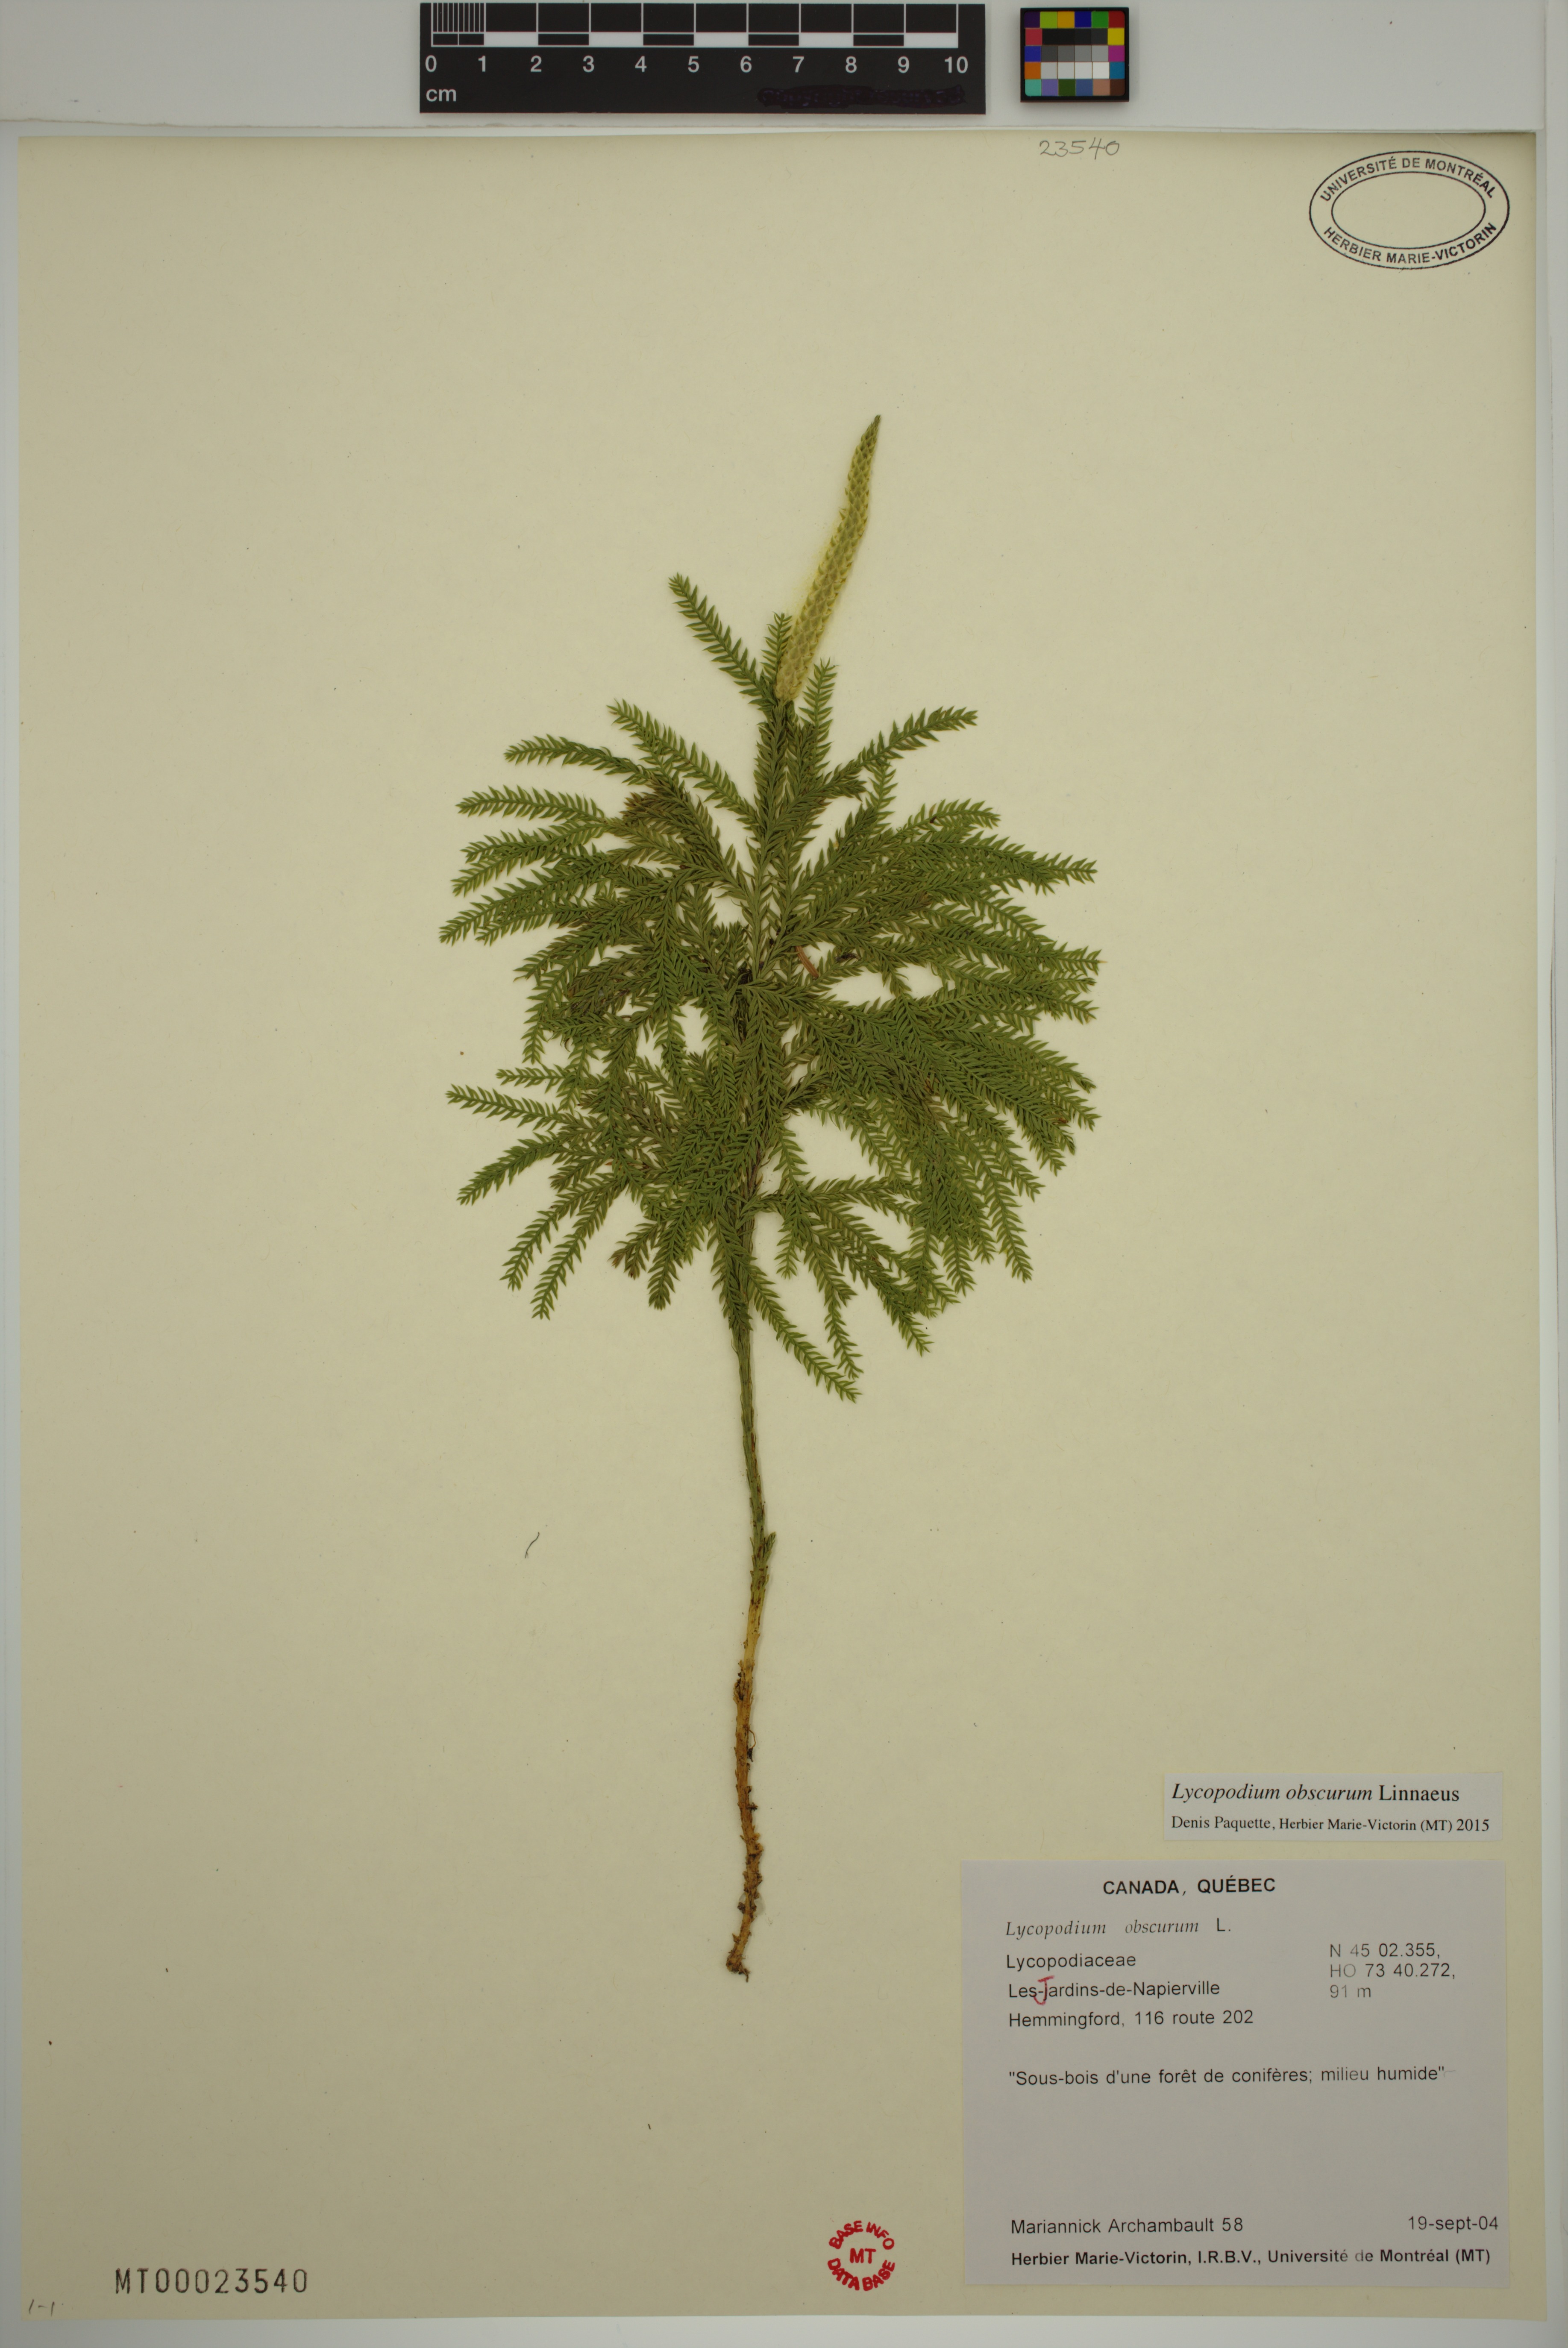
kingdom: Plantae
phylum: Tracheophyta
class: Lycopodiopsida
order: Lycopodiales
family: Lycopodiaceae
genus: Dendrolycopodium
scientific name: Dendrolycopodium obscurum
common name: Common ground-pine
